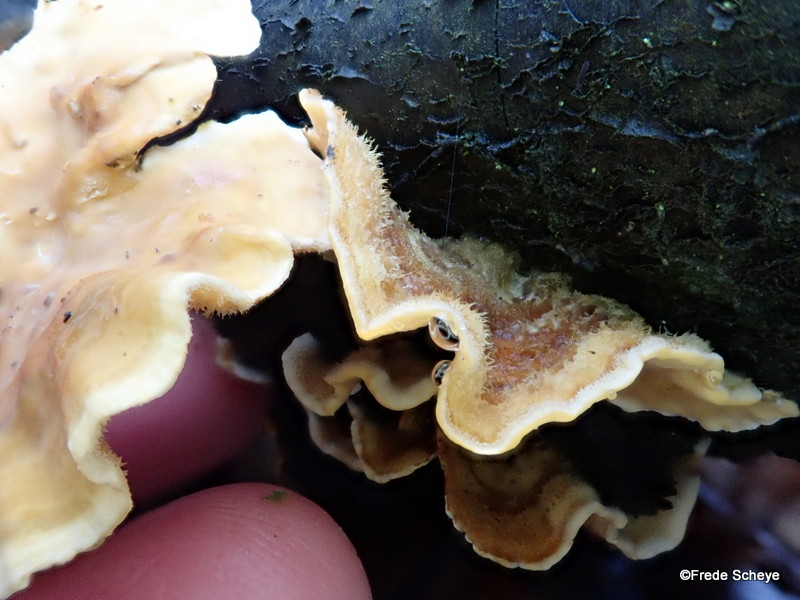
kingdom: Fungi
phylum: Basidiomycota
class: Agaricomycetes
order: Russulales
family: Stereaceae
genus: Stereum
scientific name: Stereum hirsutum
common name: håret lædersvamp
